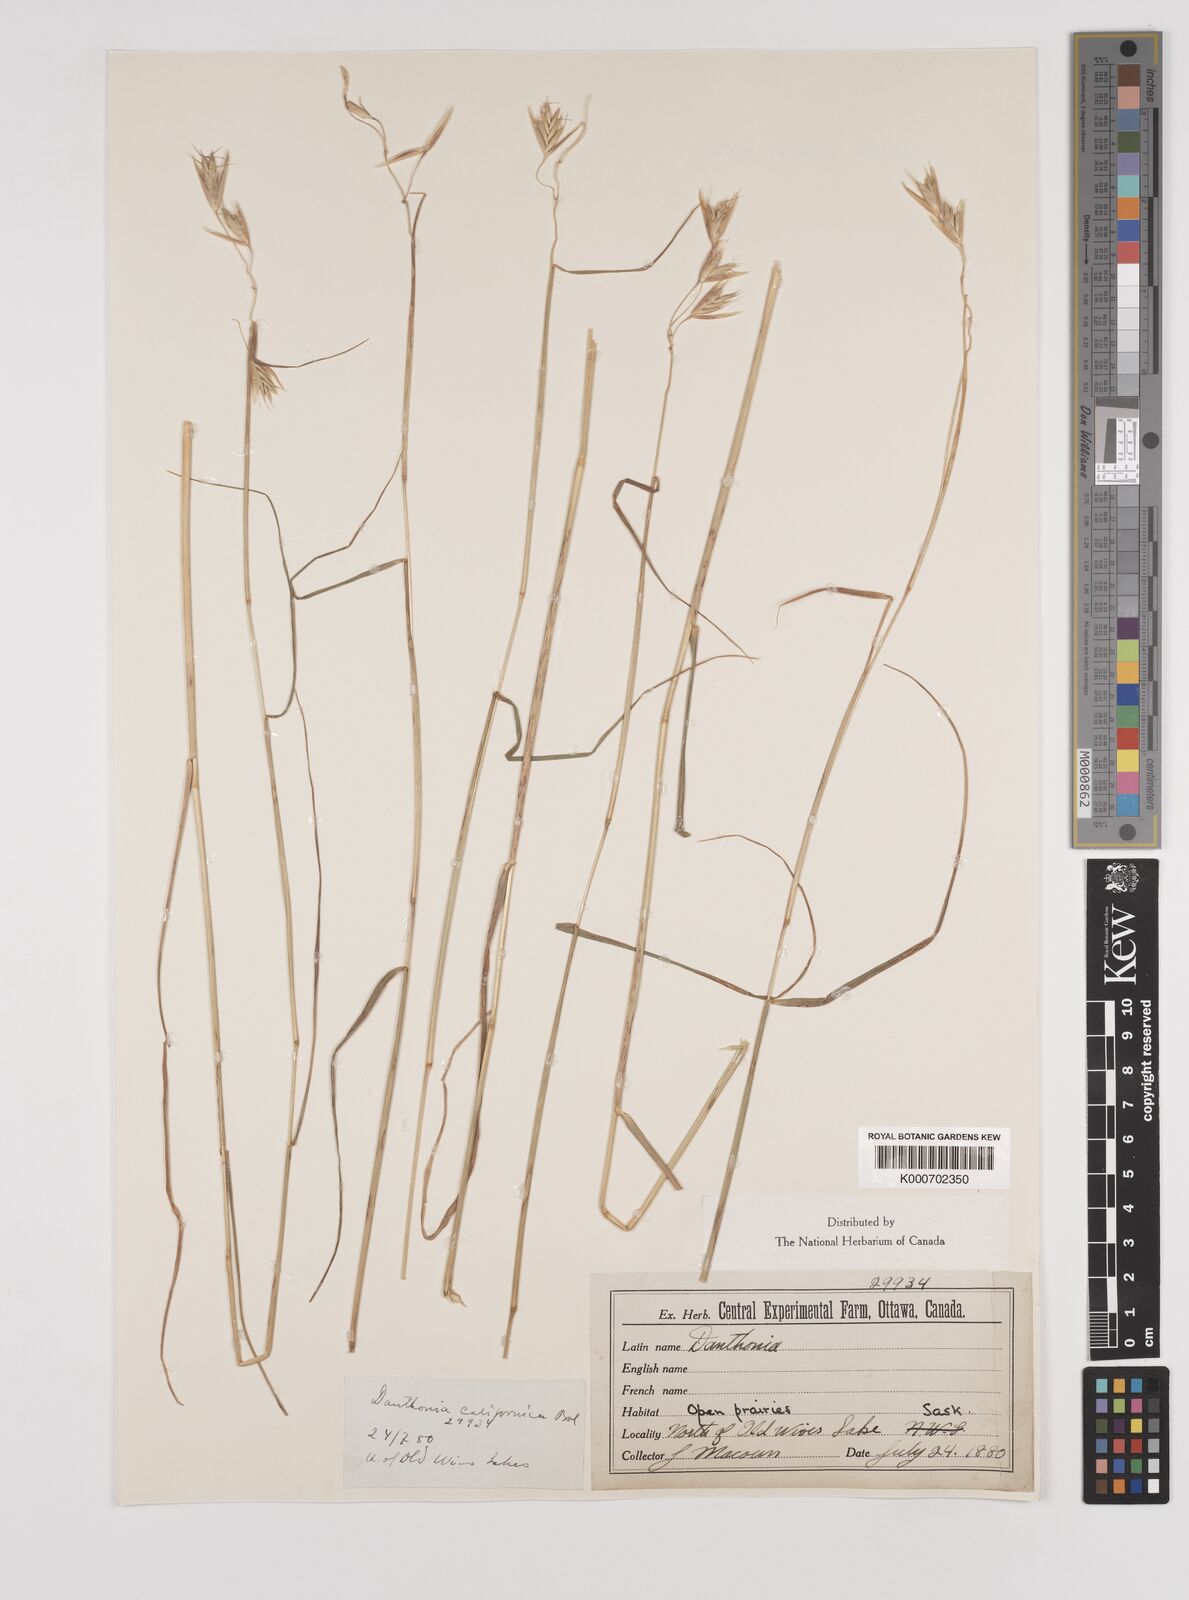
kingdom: Plantae
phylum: Tracheophyta
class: Liliopsida
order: Poales
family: Poaceae
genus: Danthonia
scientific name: Danthonia californica
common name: California oat grass
